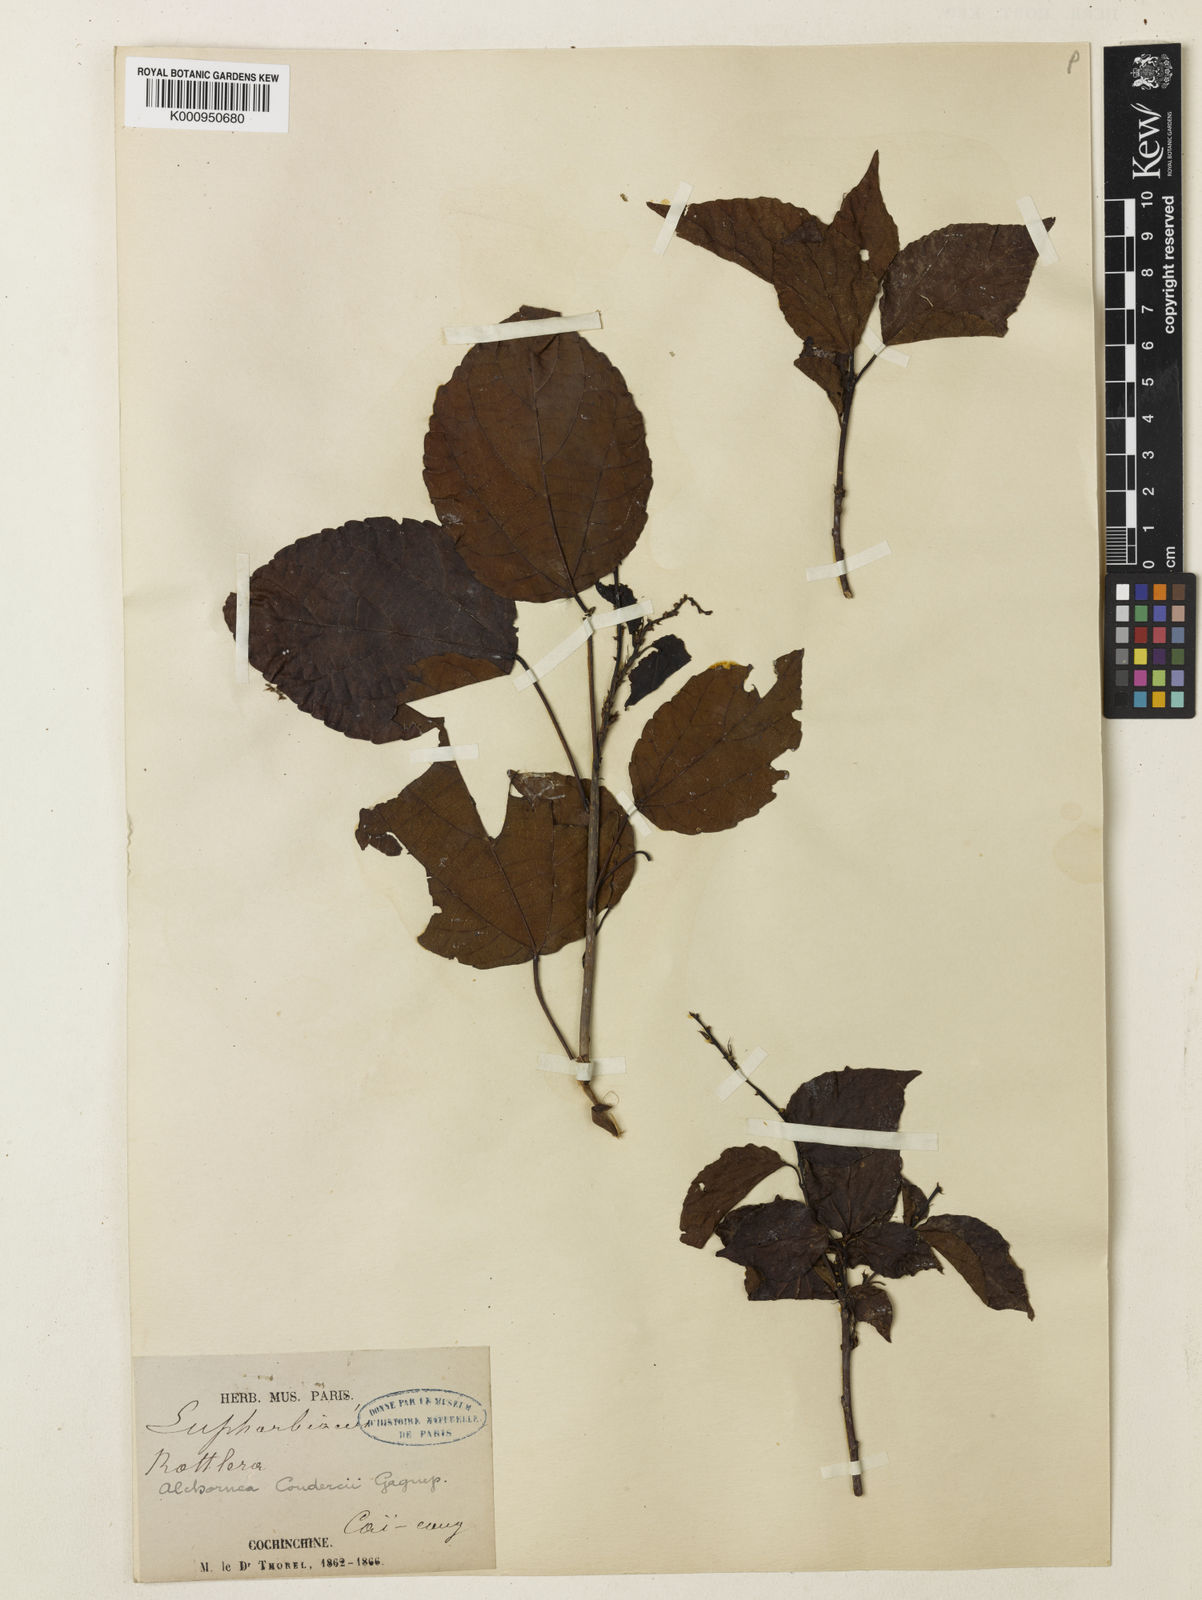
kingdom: Plantae
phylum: Tracheophyta
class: Magnoliopsida
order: Malpighiales
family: Euphorbiaceae
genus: Alchornea
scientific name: Alchornea
